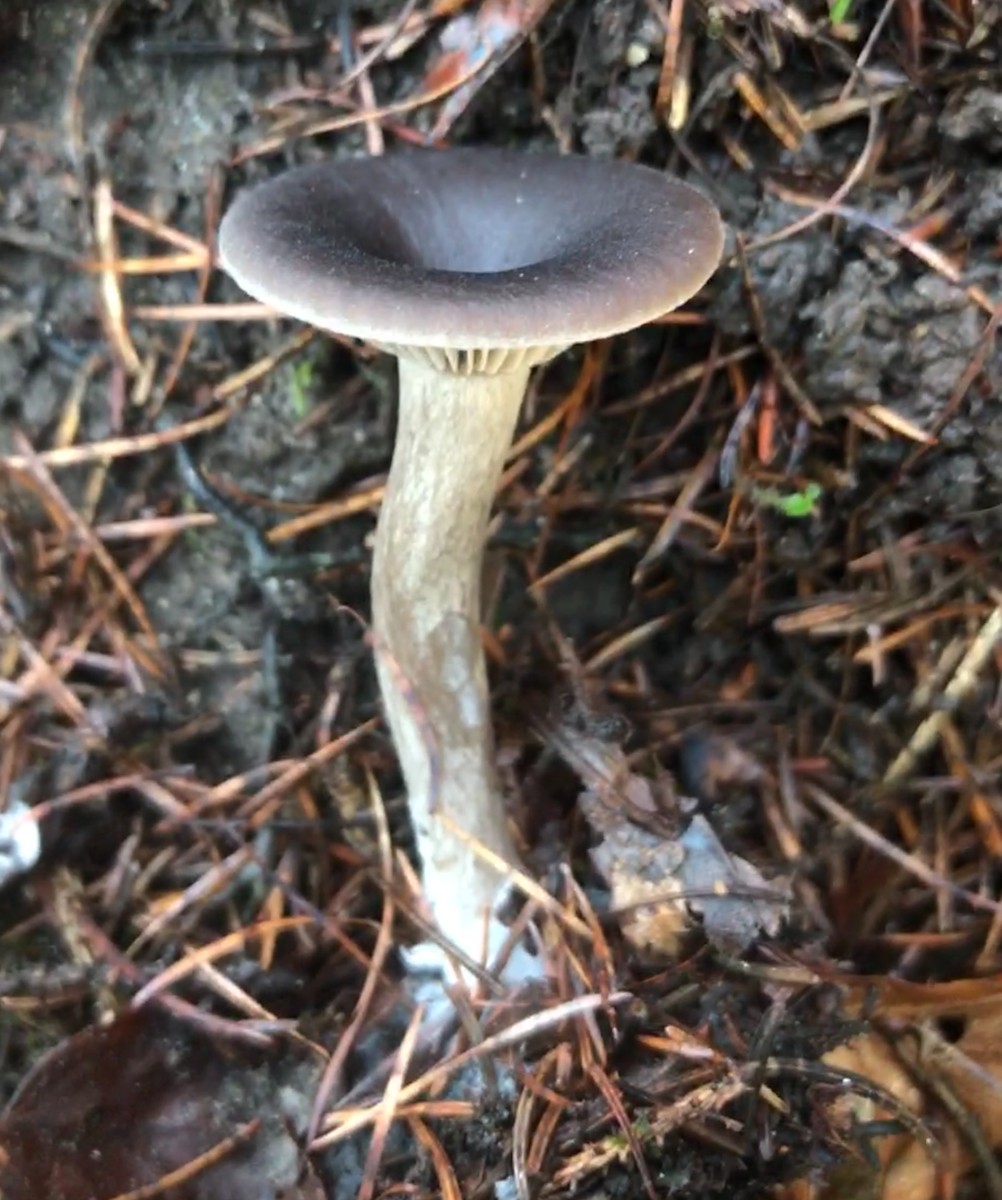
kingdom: Fungi
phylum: Basidiomycota
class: Agaricomycetes
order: Agaricales
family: Pseudoclitocybaceae
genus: Pseudoclitocybe
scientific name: Pseudoclitocybe cyathiformis
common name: almindelig bægertragthat
